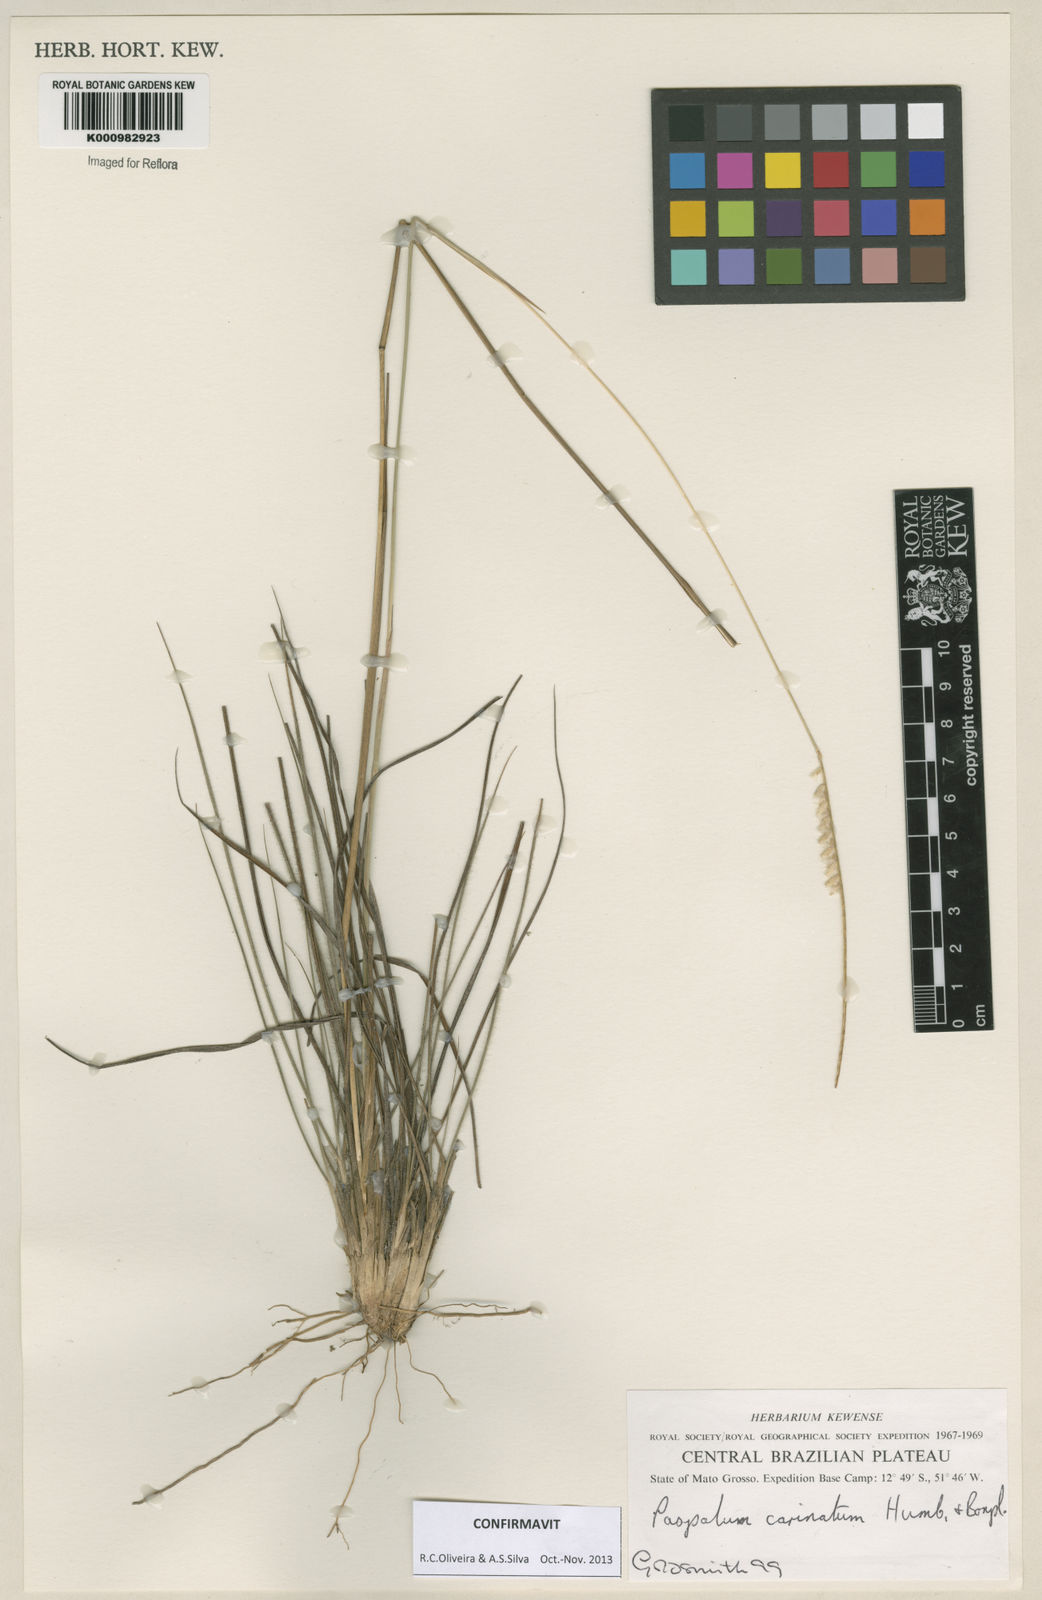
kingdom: Plantae
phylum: Tracheophyta
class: Liliopsida
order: Poales
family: Poaceae
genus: Paspalum
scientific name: Paspalum
